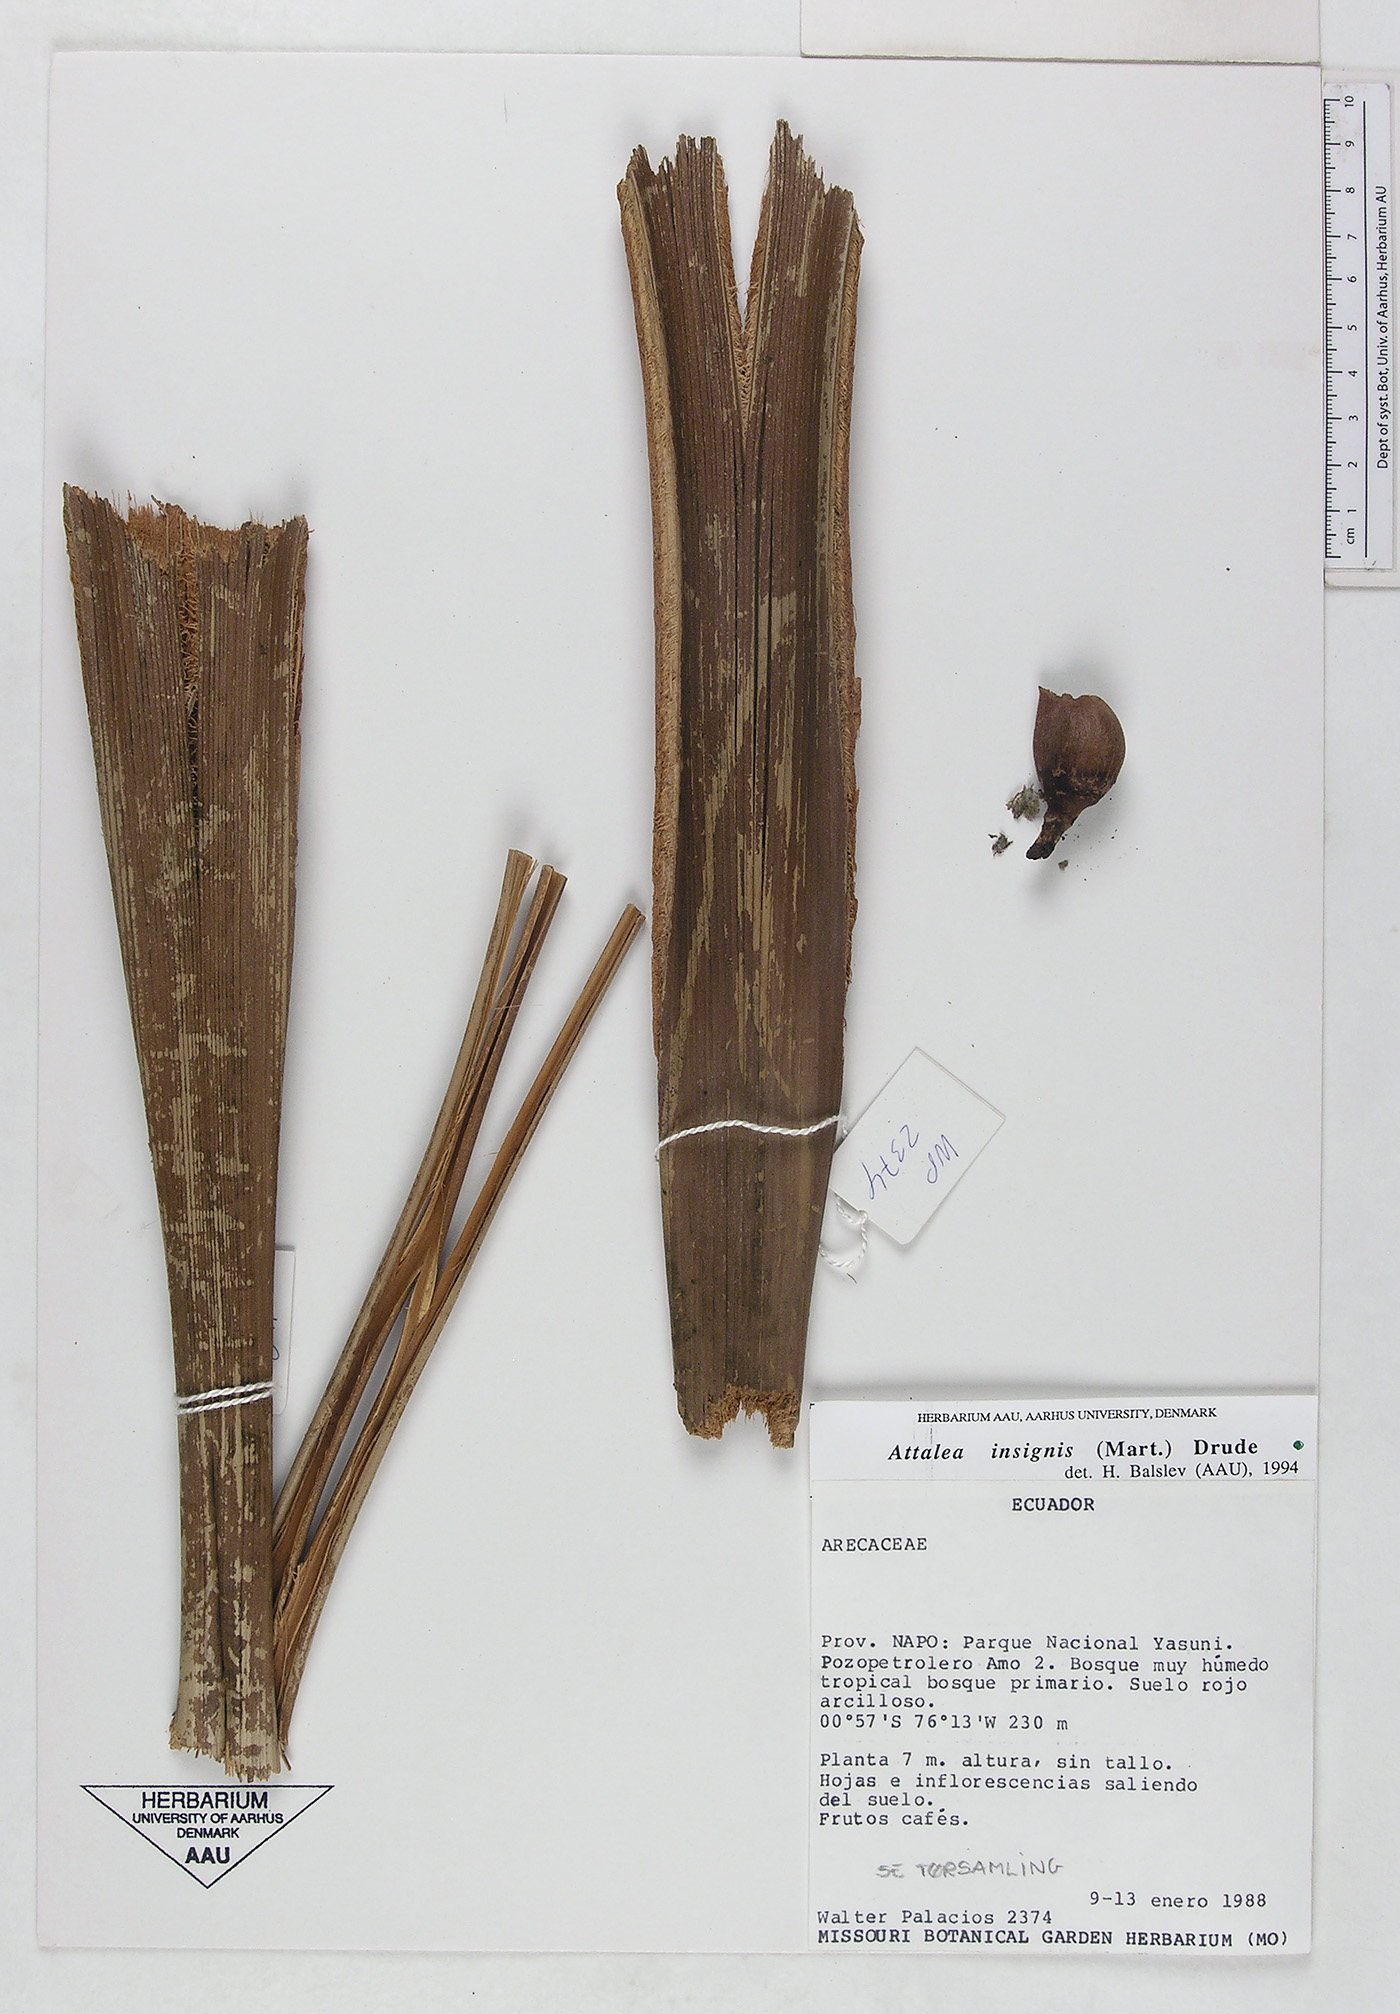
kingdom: Plantae
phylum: Tracheophyta
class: Liliopsida
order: Arecales
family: Arecaceae
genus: Attalea
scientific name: Attalea insignis
